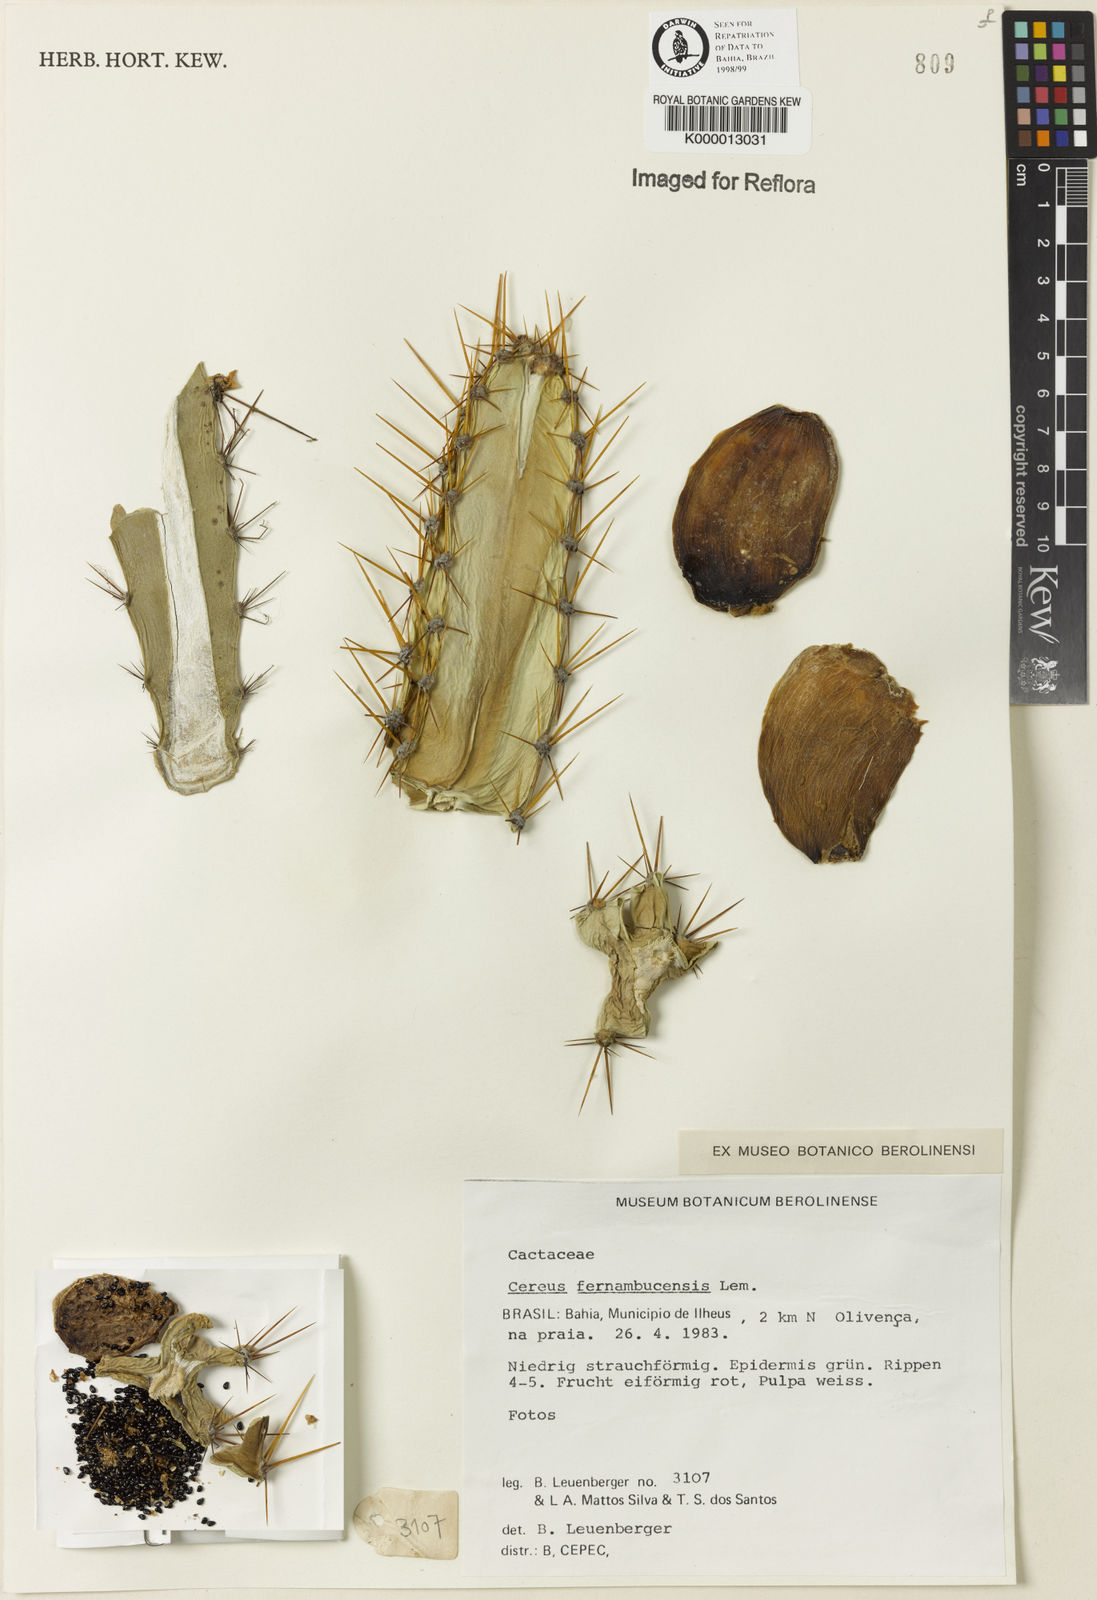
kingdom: Plantae
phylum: Tracheophyta
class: Magnoliopsida
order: Caryophyllales
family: Cactaceae
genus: Cereus
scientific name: Cereus fernambucensis
